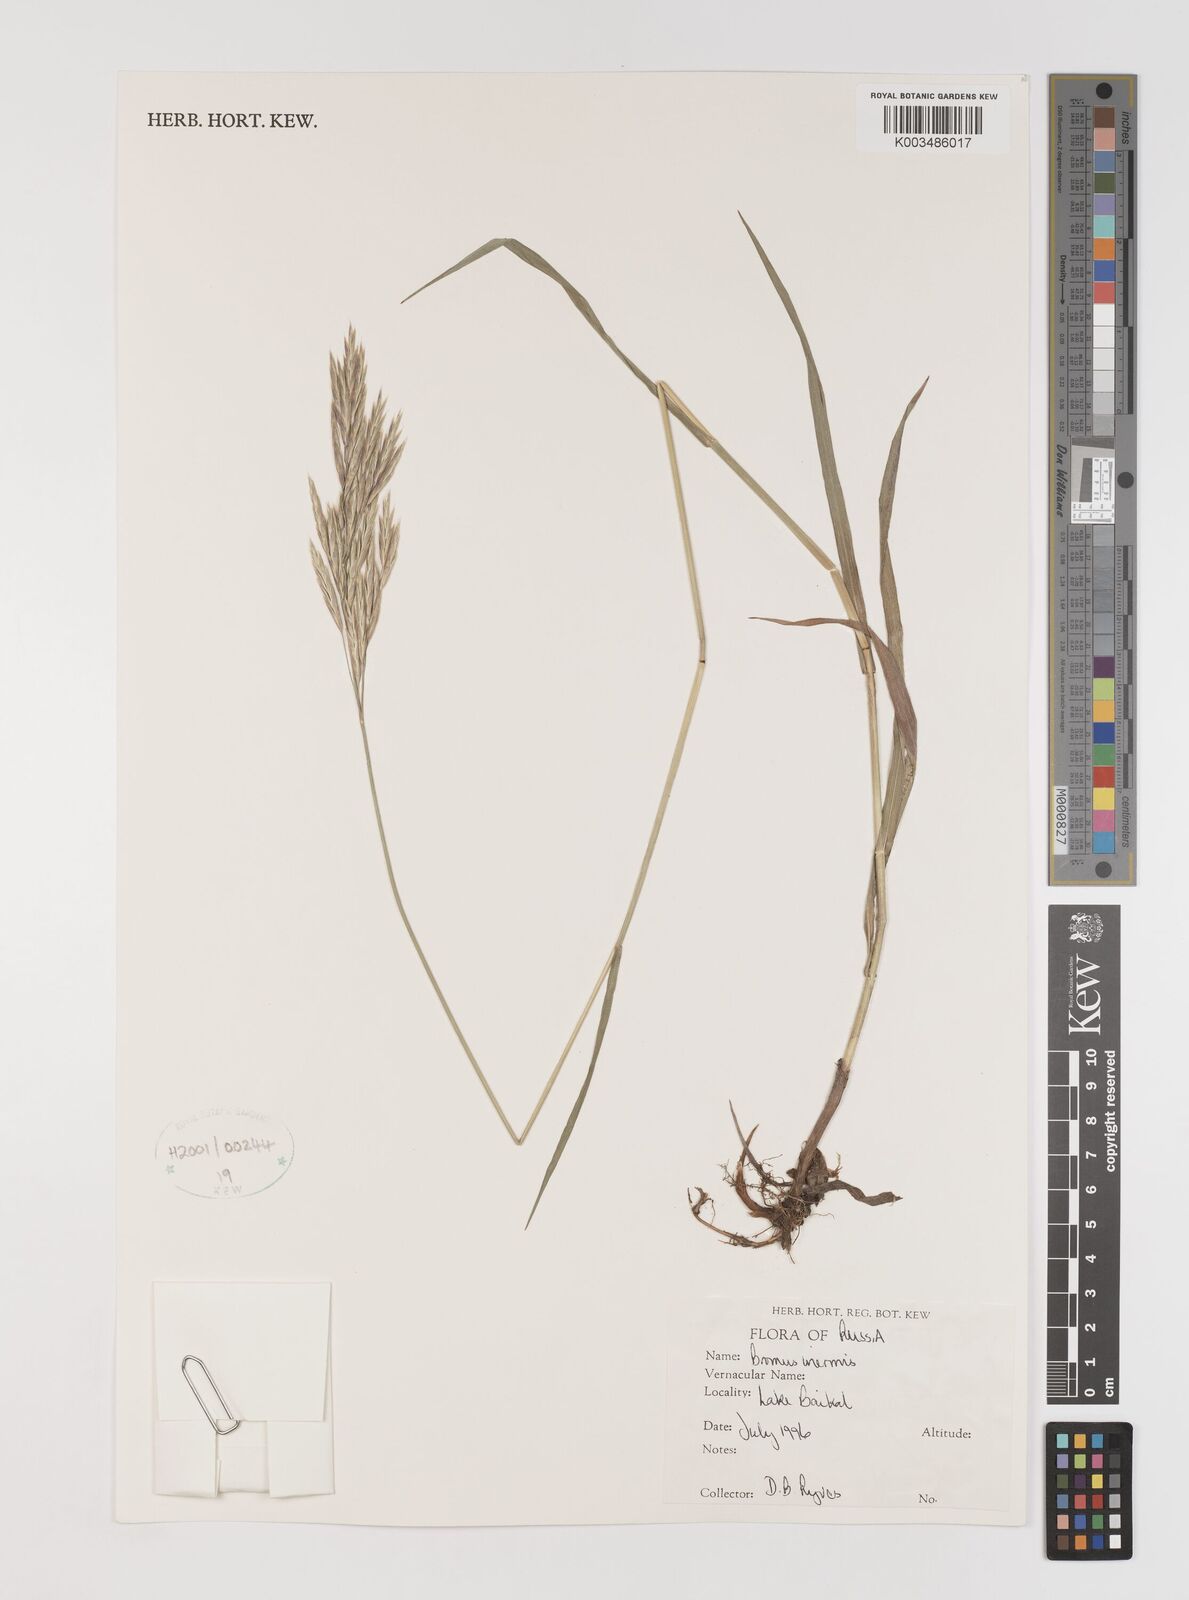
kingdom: Plantae
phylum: Tracheophyta
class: Liliopsida
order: Poales
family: Poaceae
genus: Bromus
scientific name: Bromus inermis
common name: Smooth brome
